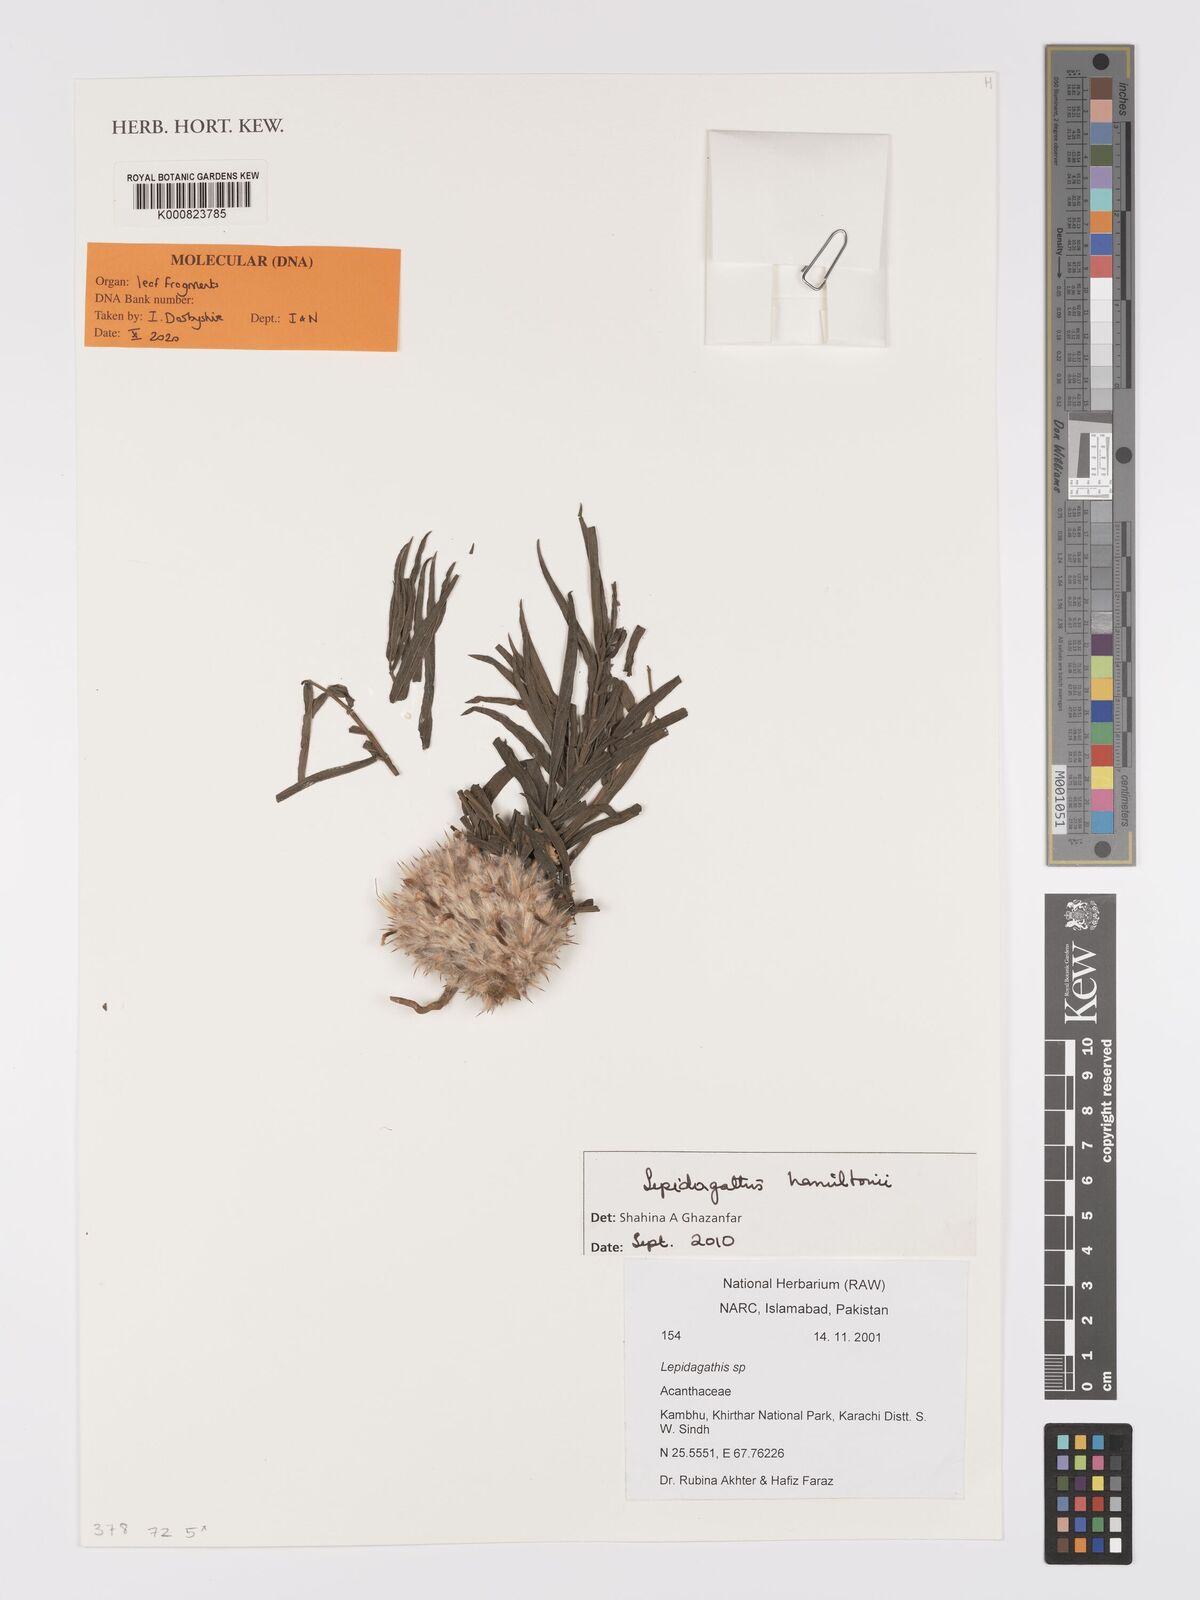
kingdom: Plantae
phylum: Tracheophyta
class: Magnoliopsida
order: Lamiales
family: Acanthaceae
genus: Lepidagathis
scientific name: Lepidagathis hamiltoniana
